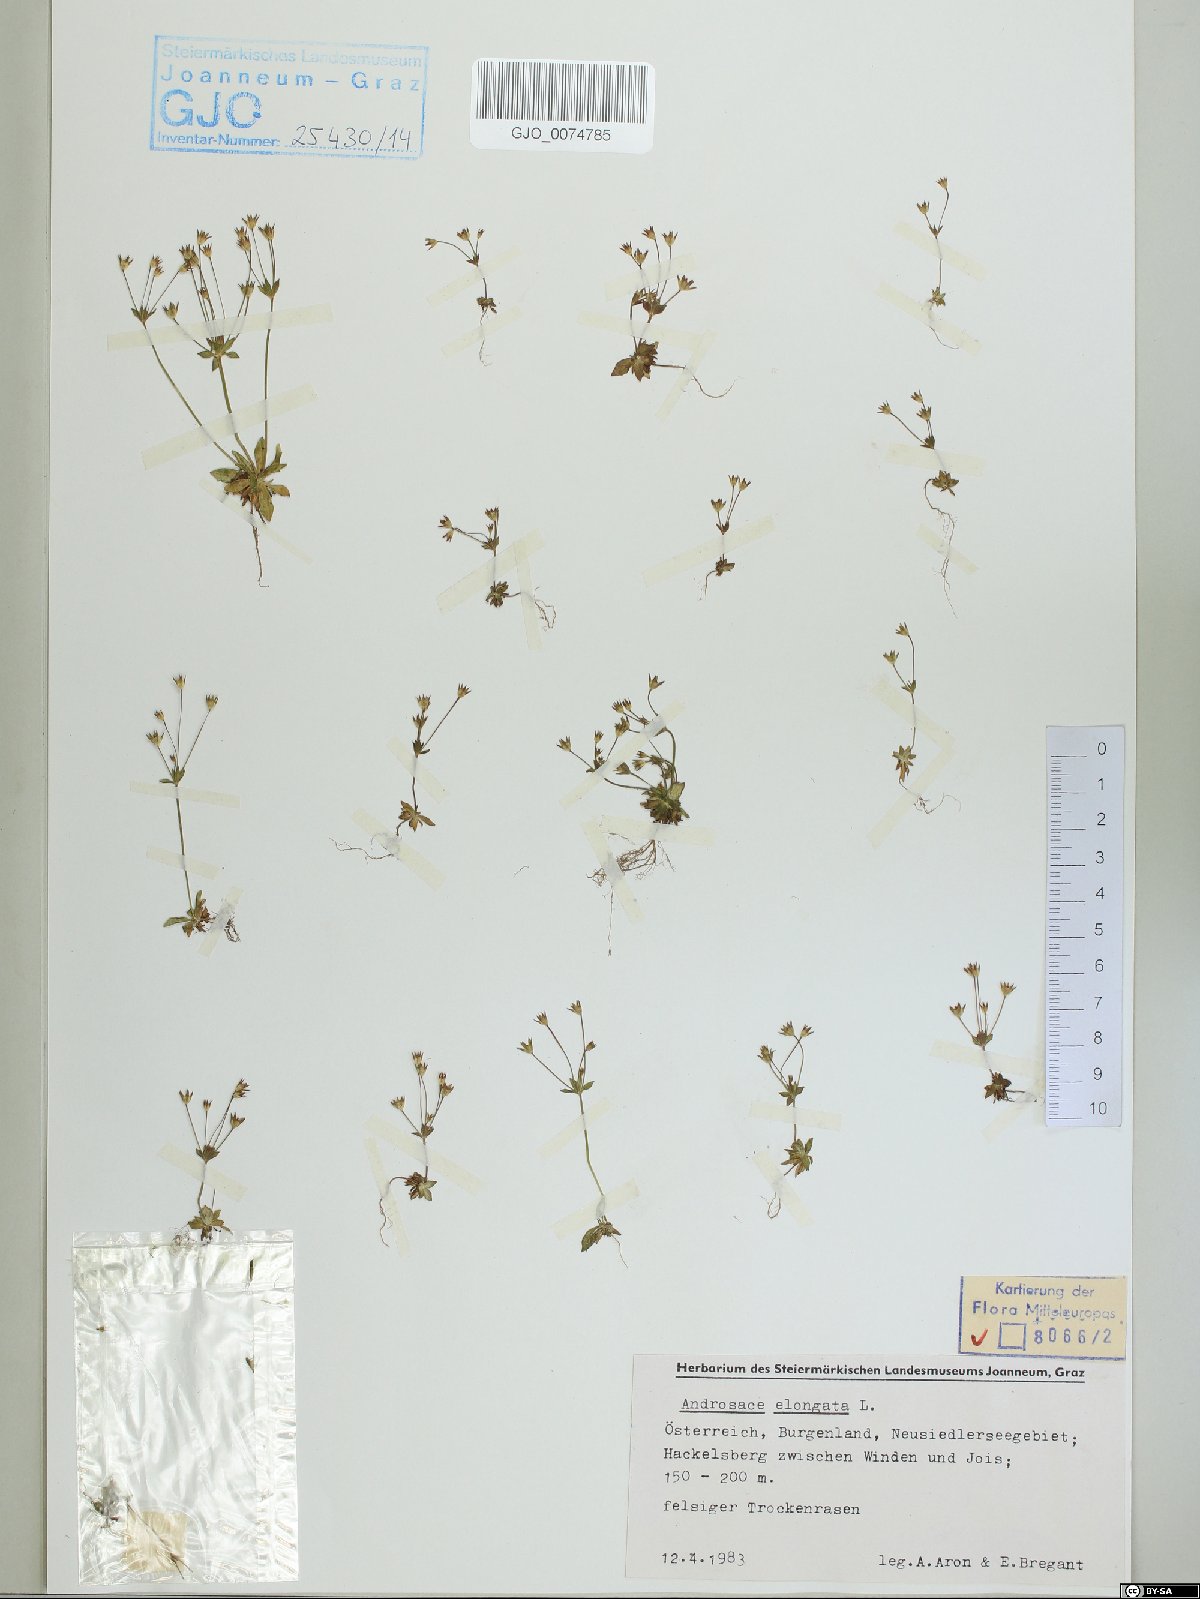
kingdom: Plantae
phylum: Tracheophyta
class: Magnoliopsida
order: Ericales
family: Primulaceae
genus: Androsace
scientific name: Androsace elongata
